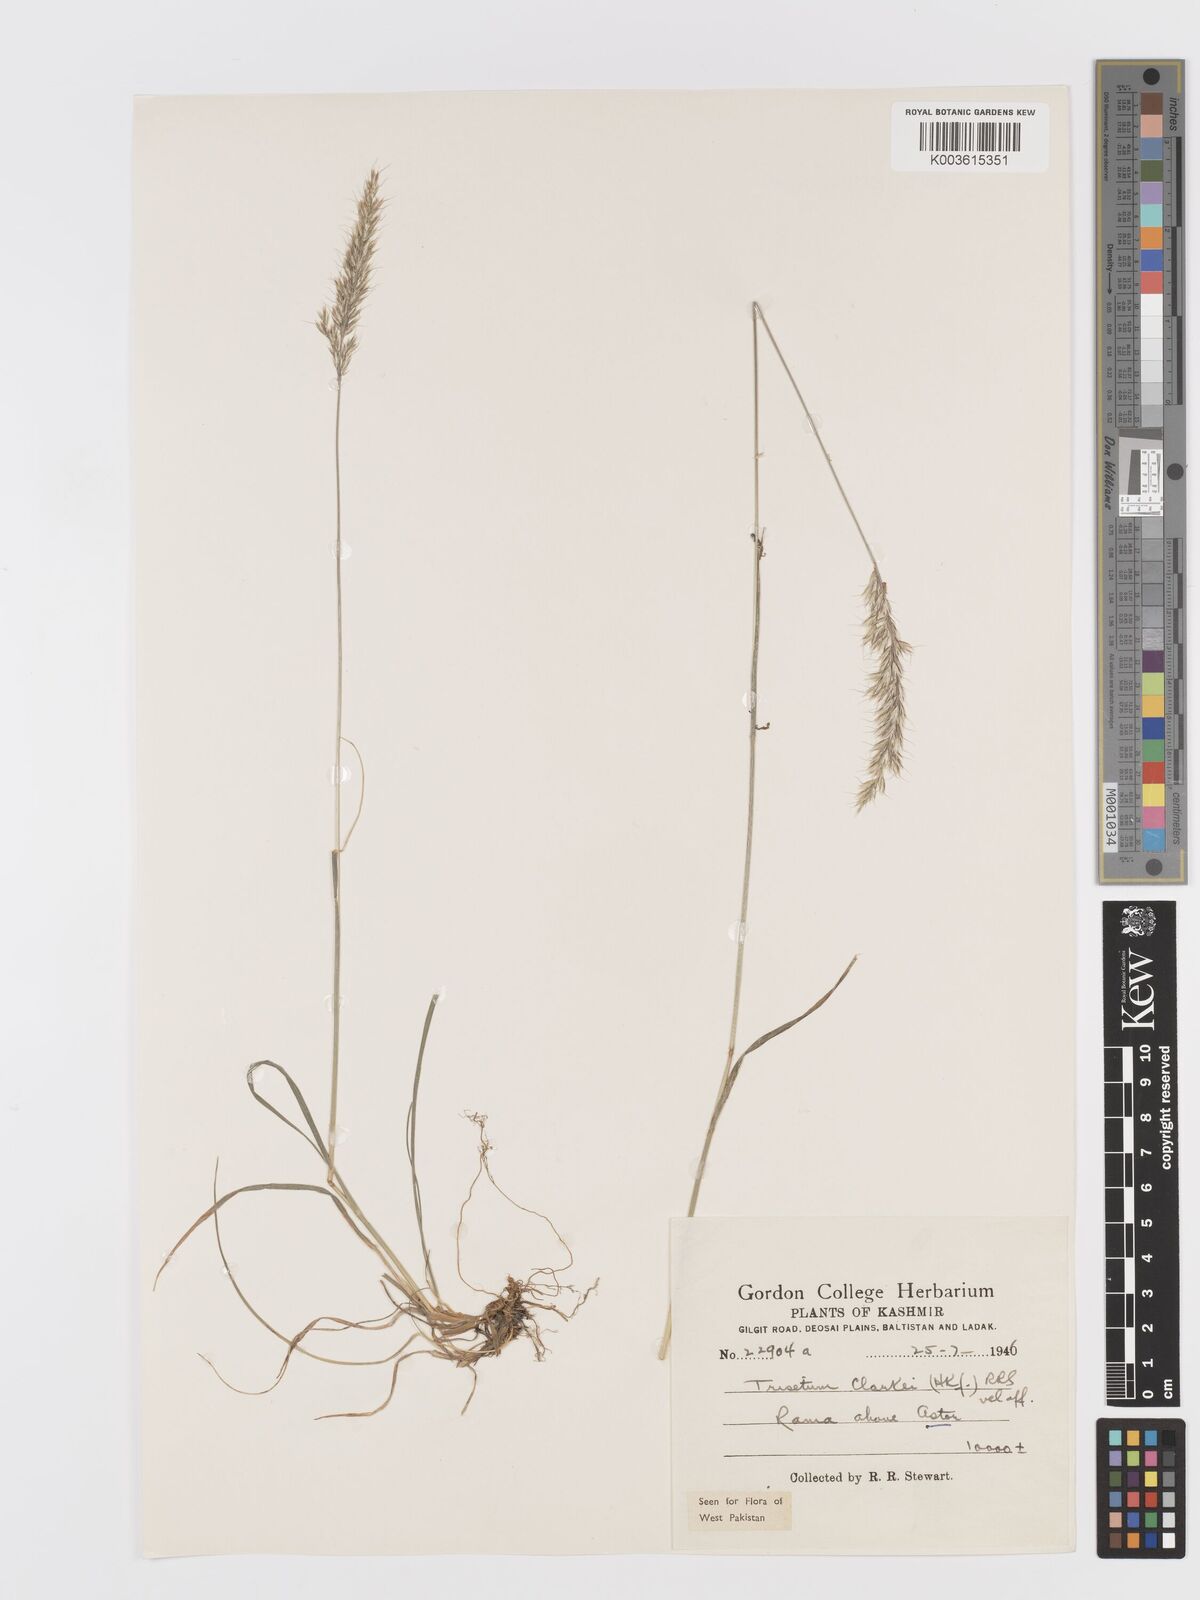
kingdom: Plantae
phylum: Tracheophyta
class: Liliopsida
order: Poales
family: Poaceae
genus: Trisetum
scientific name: Trisetum clarkei
